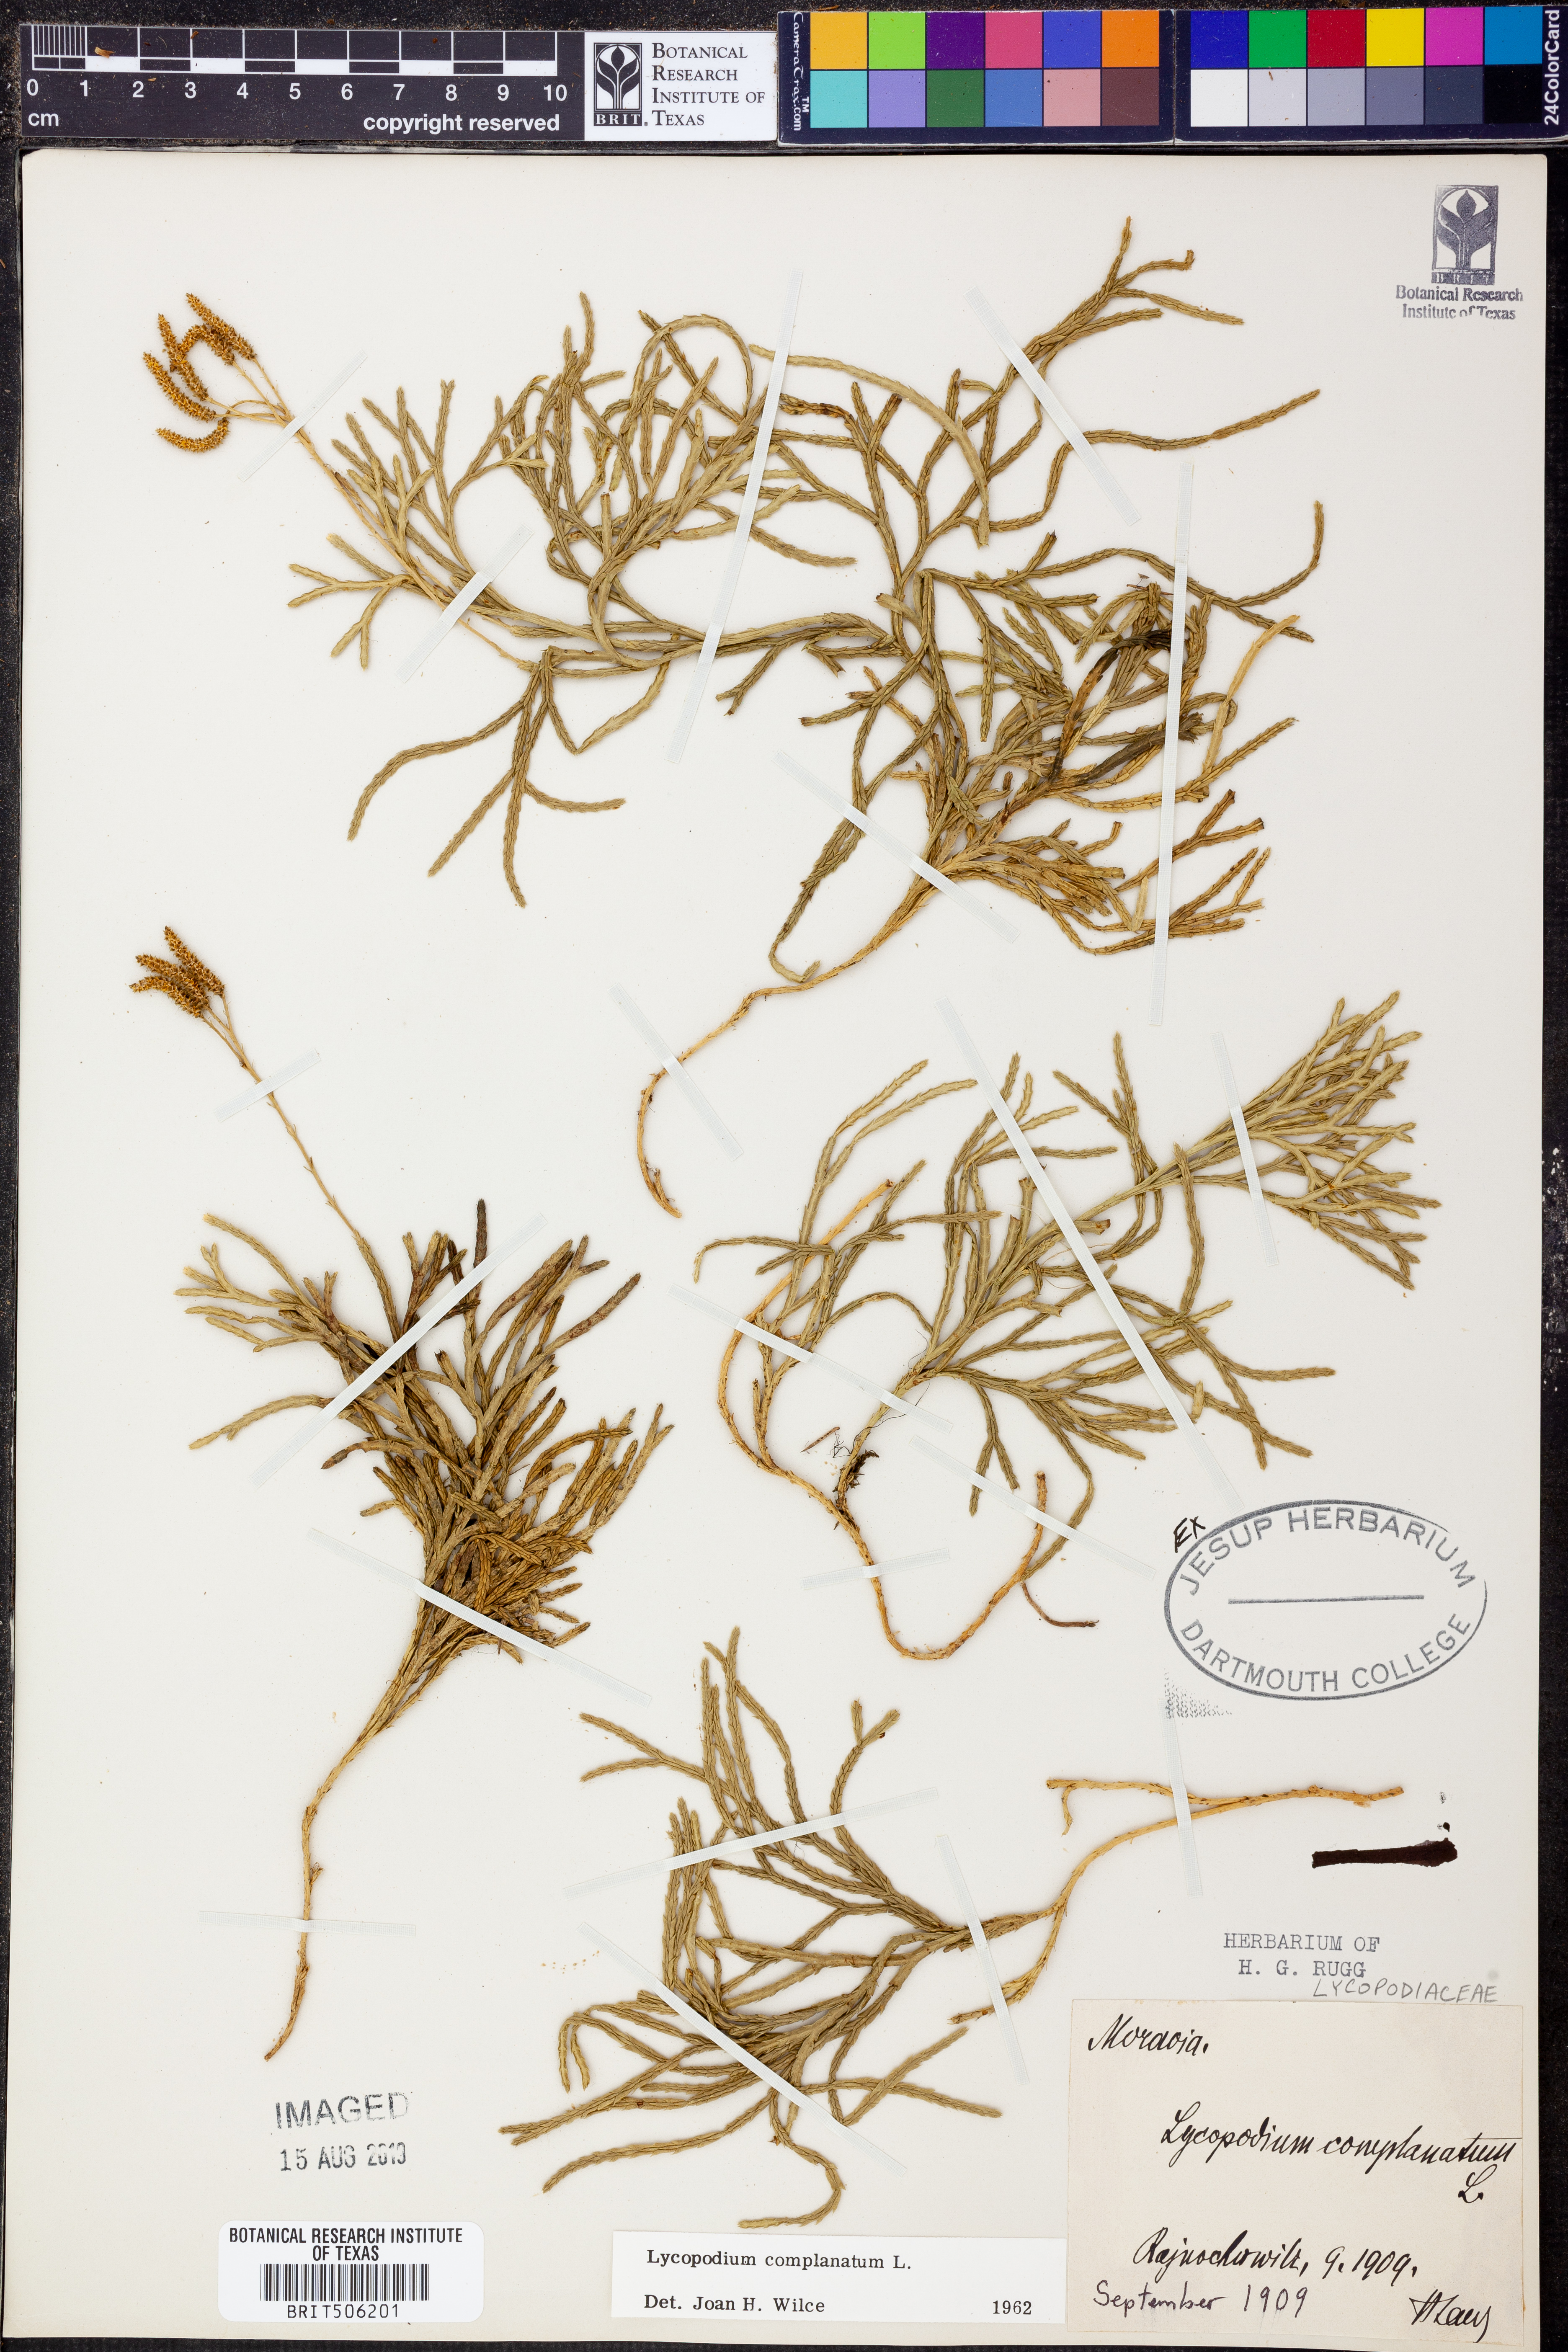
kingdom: Plantae
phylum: Tracheophyta
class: Lycopodiopsida
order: Lycopodiales
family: Lycopodiaceae
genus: Diphasiastrum
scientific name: Diphasiastrum complanatum
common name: Northern running-pine
